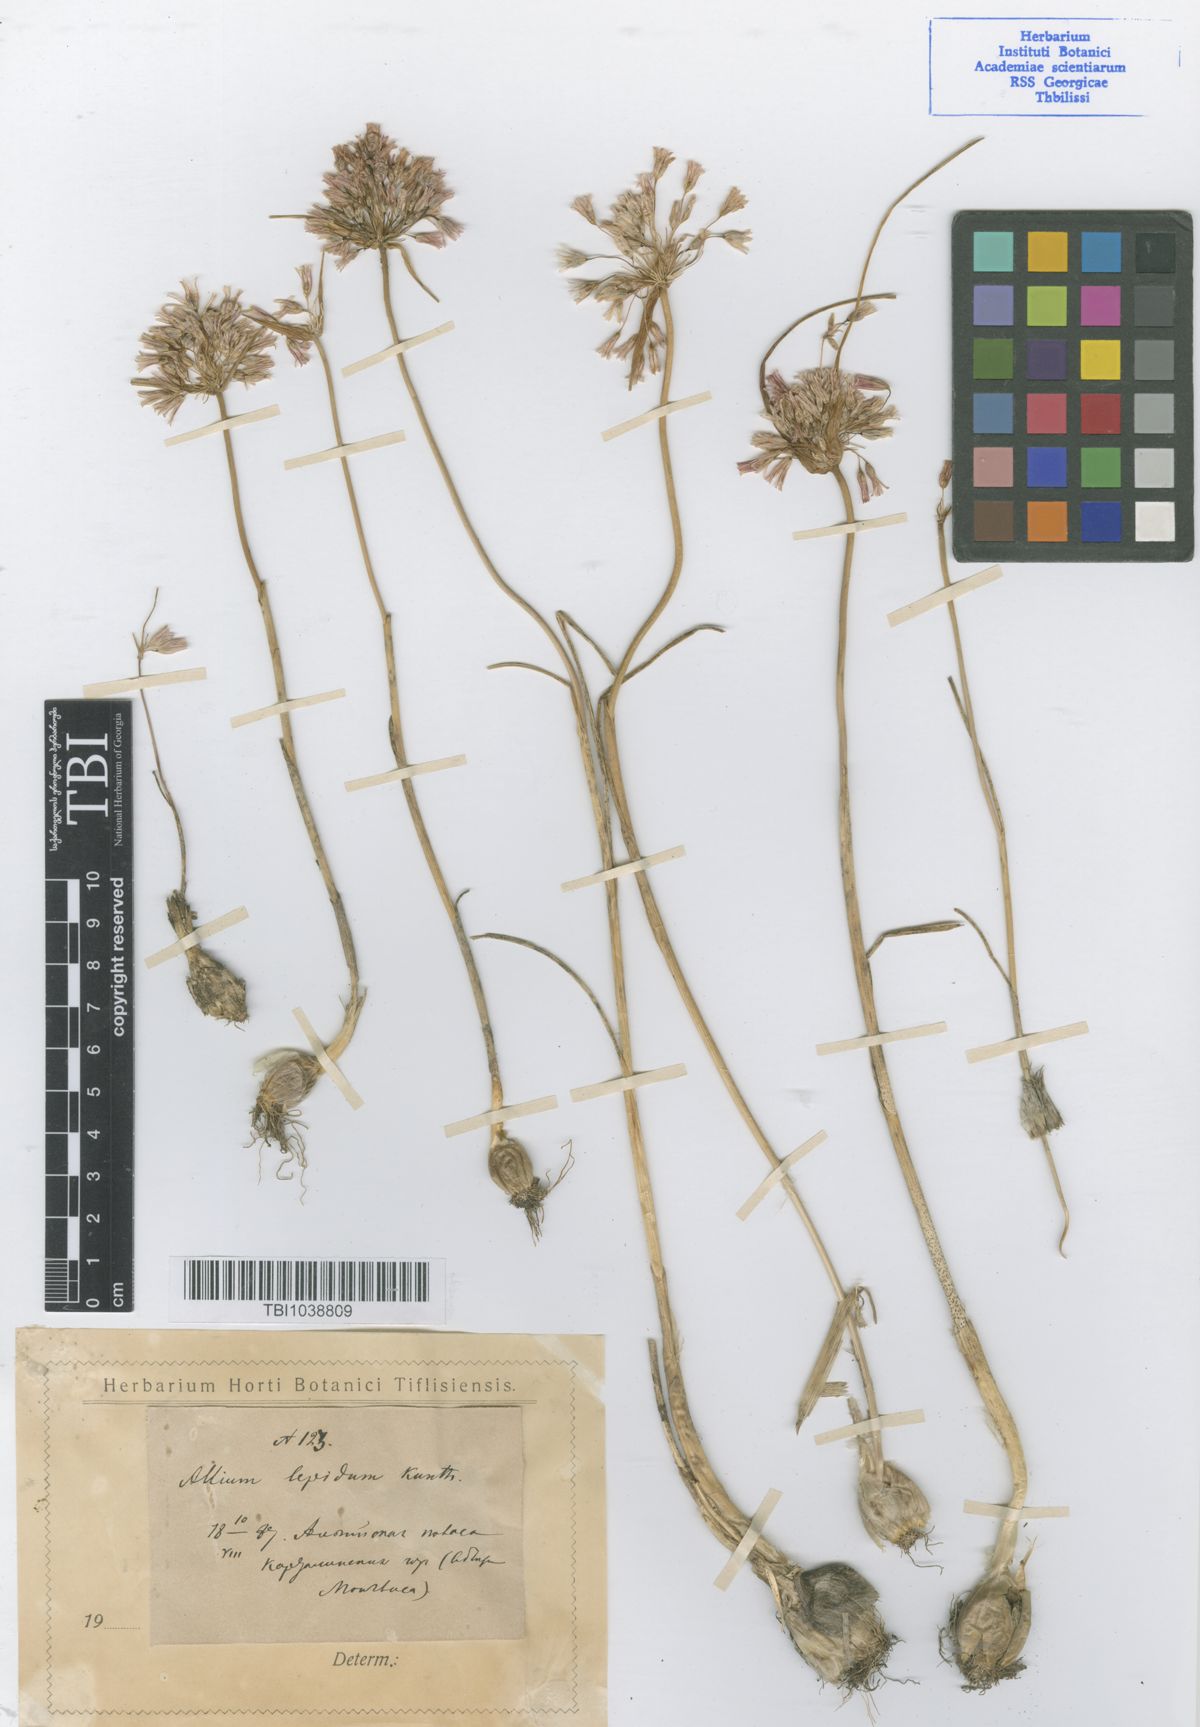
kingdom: Plantae
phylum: Tracheophyta
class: Liliopsida
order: Asparagales
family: Amaryllidaceae
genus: Allium
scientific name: Allium kunthianum
